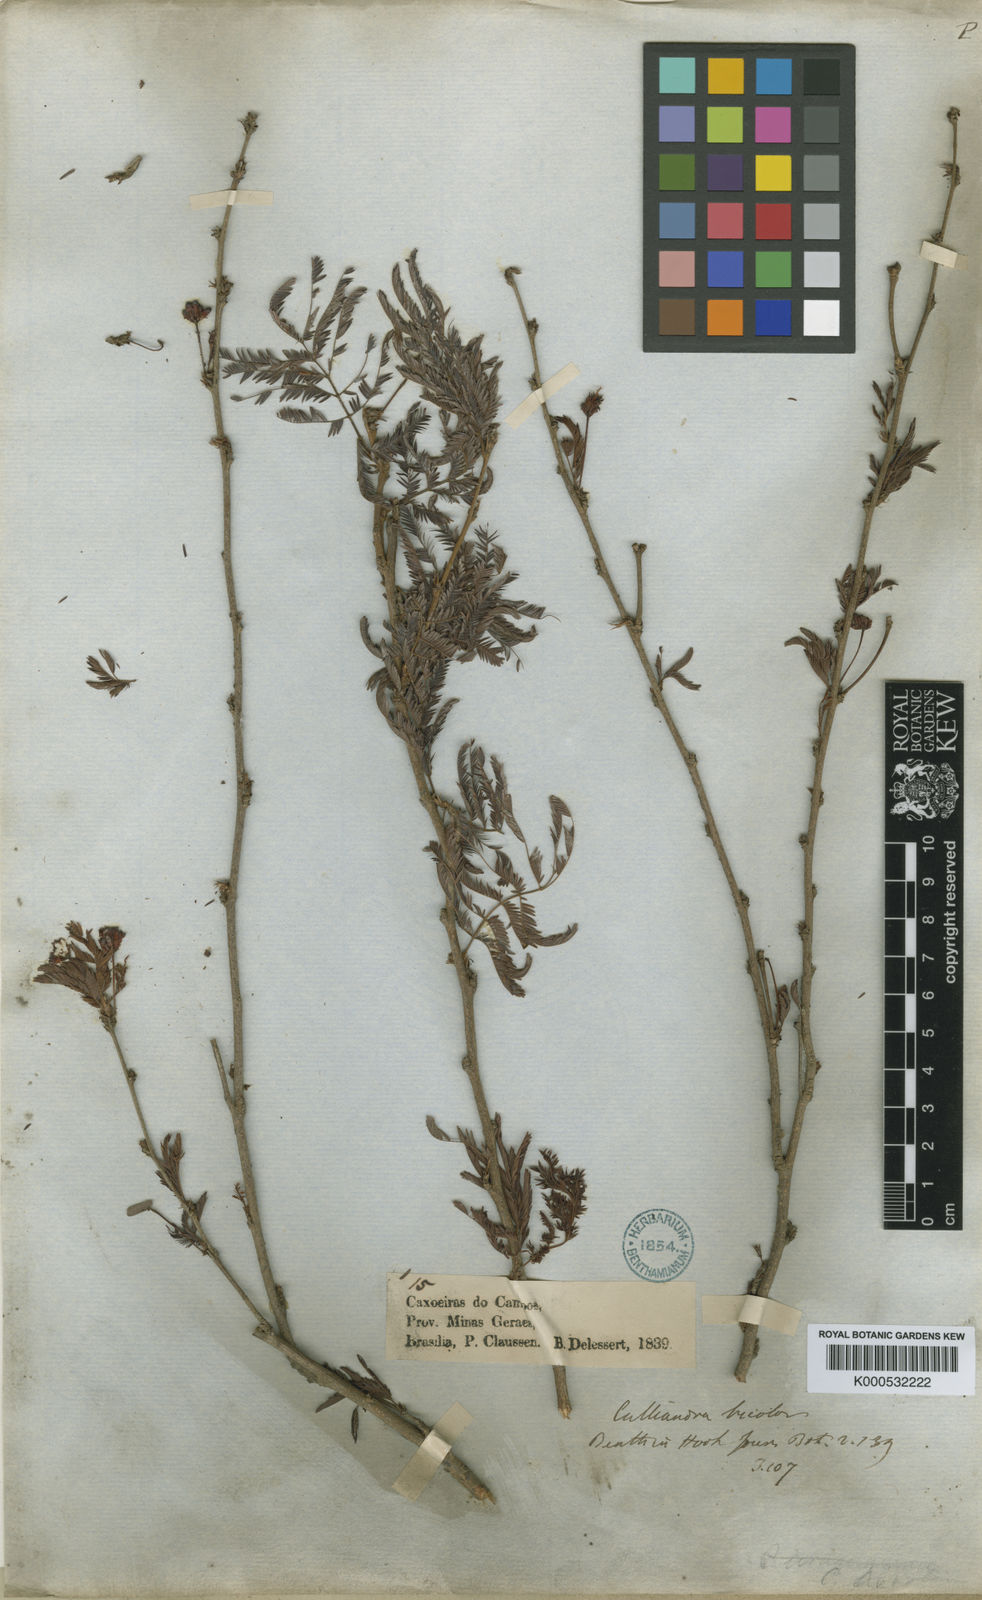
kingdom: Plantae
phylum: Tracheophyta
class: Magnoliopsida
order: Fabales
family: Fabaceae
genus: Calliandra
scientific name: Calliandra parvifolia
